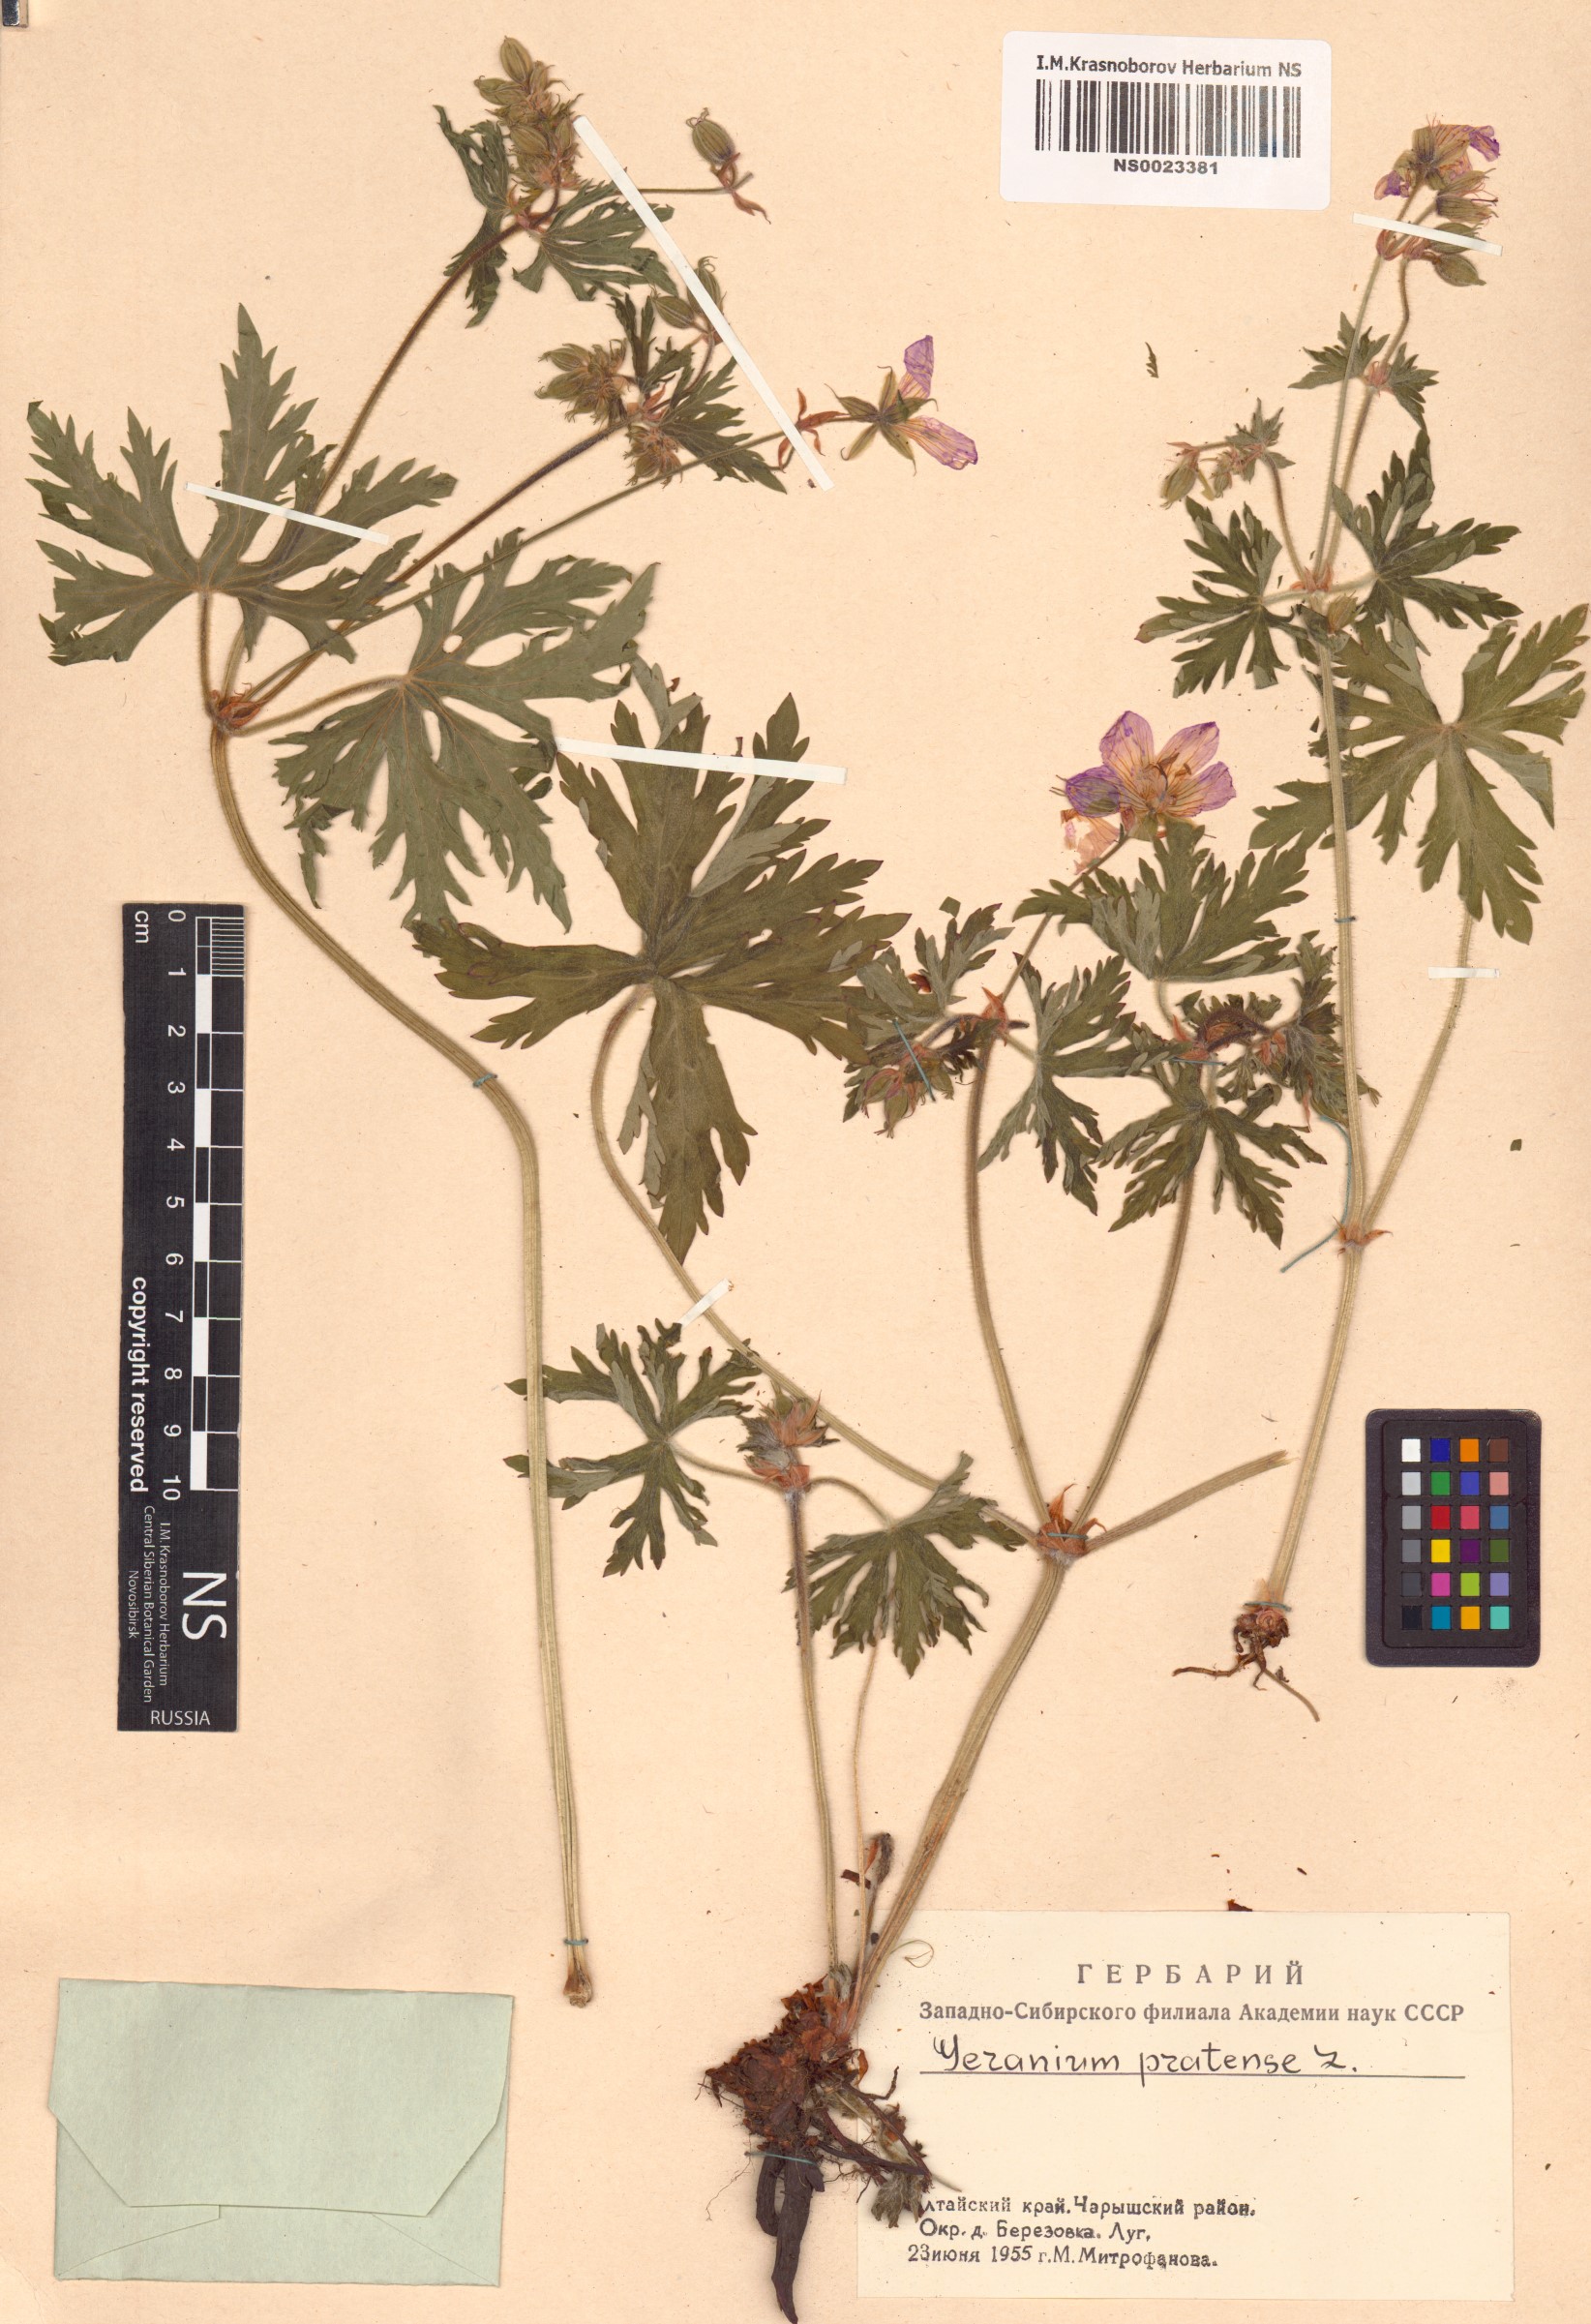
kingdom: Plantae
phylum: Tracheophyta
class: Magnoliopsida
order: Geraniales
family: Geraniaceae
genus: Geranium
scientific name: Geranium pratense
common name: Meadow crane's-bill
